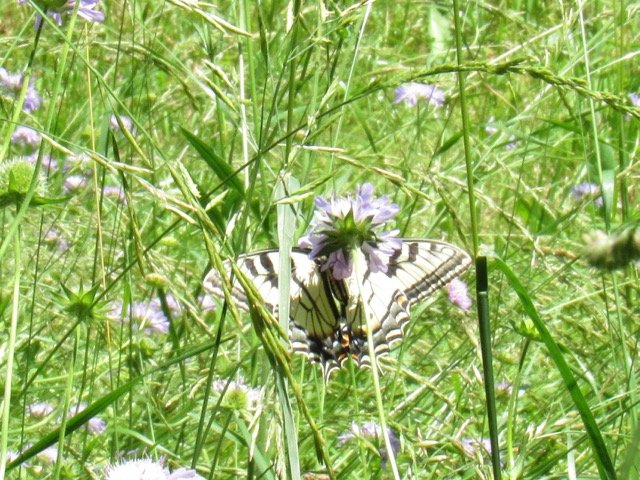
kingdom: Animalia
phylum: Arthropoda
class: Insecta
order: Lepidoptera
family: Papilionidae
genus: Pterourus
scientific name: Pterourus canadensis
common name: Canadian Tiger Swallowtail
